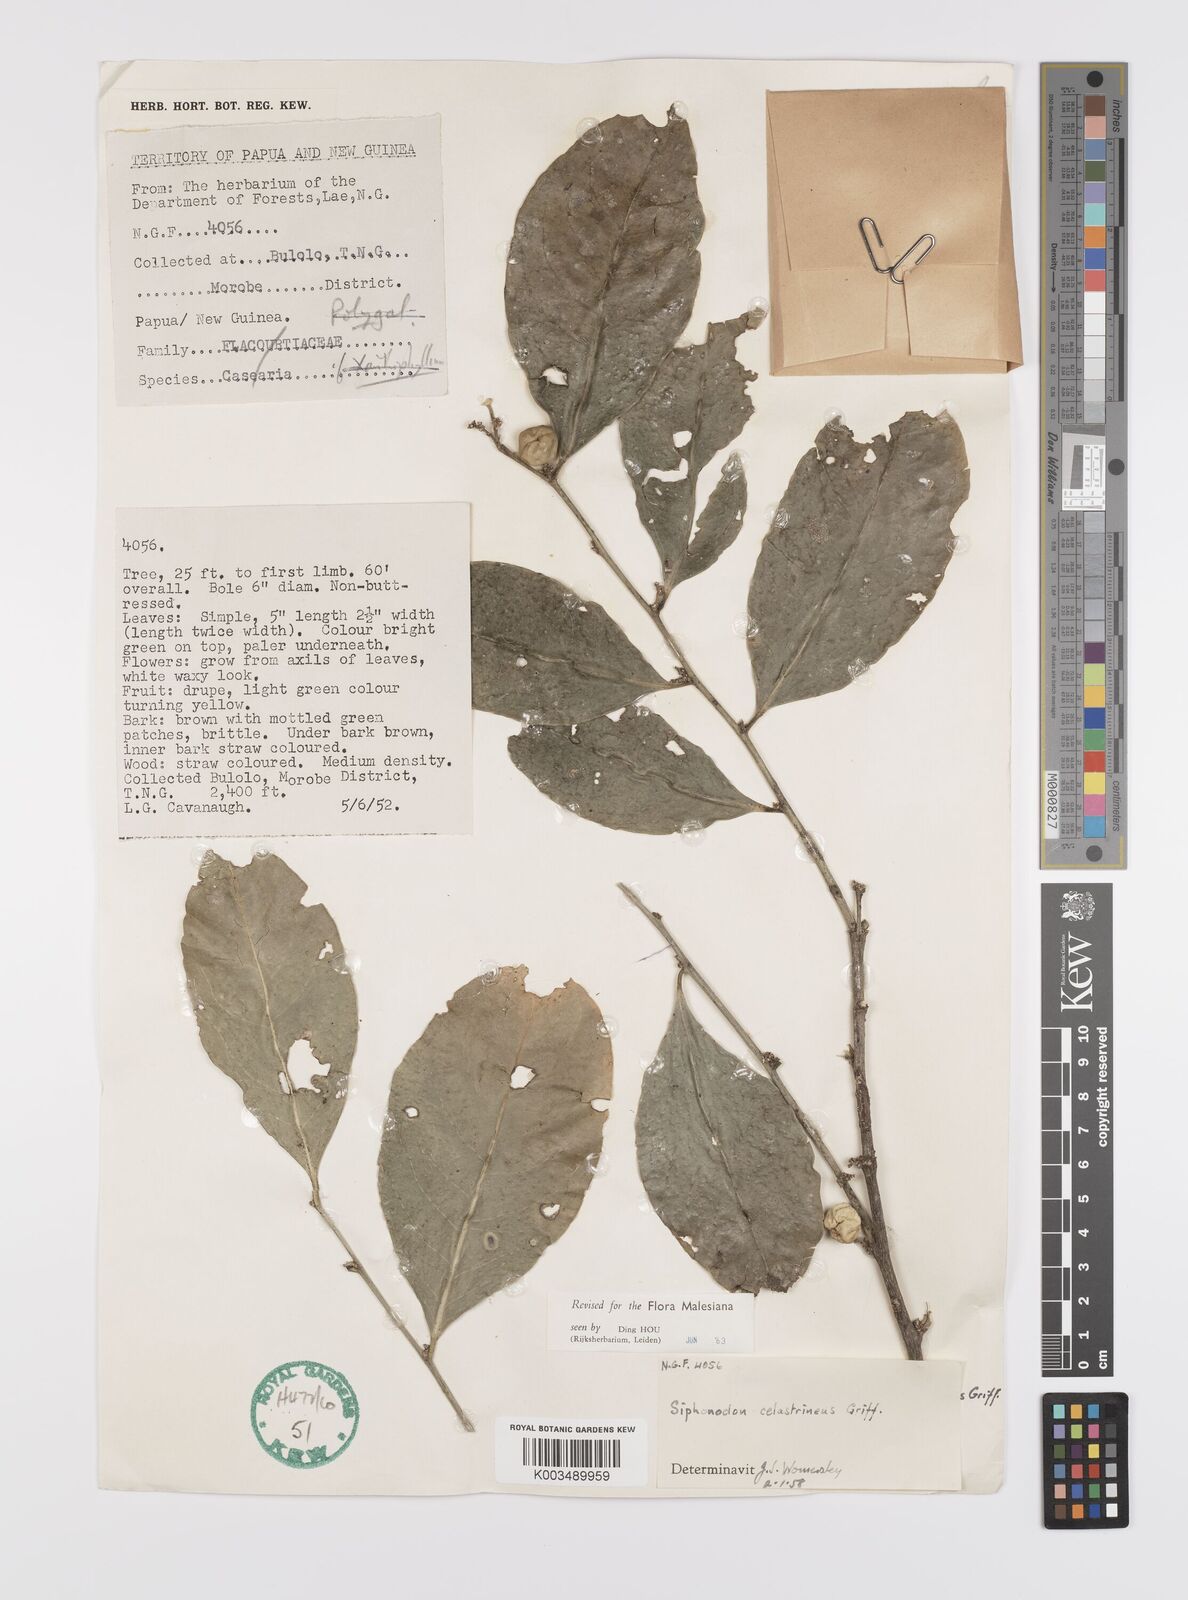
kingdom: Plantae
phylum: Tracheophyta
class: Magnoliopsida
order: Celastrales
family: Celastraceae
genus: Siphonodon
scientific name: Siphonodon celastrineus
